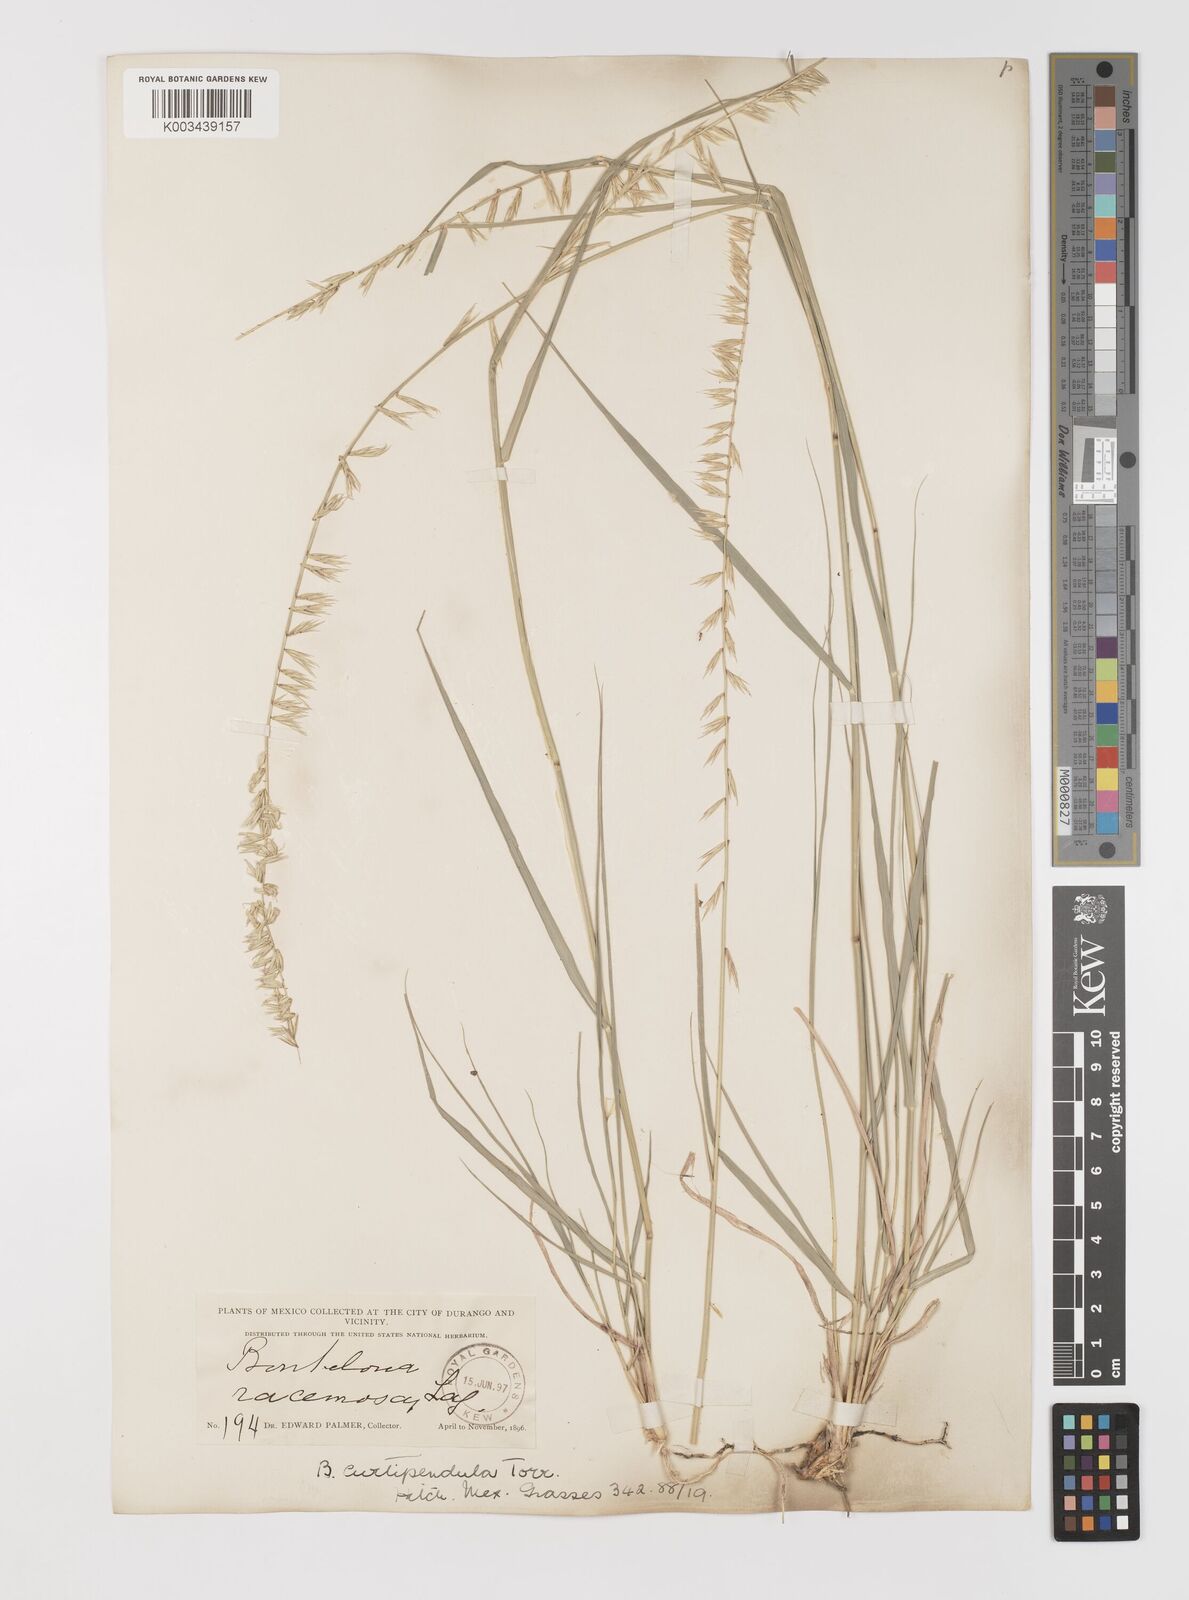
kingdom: Plantae
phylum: Tracheophyta
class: Liliopsida
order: Poales
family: Poaceae
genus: Bouteloua
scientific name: Bouteloua curtipendula
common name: Side-oats grama
